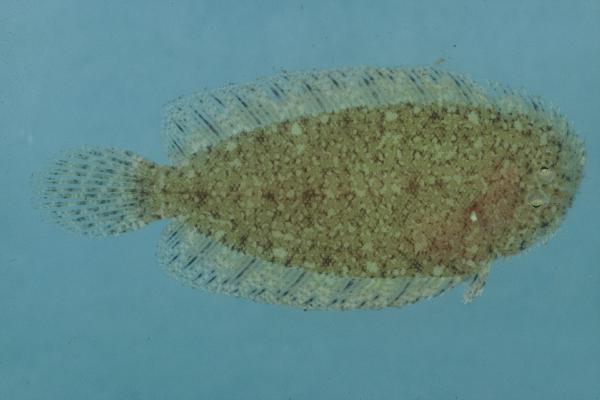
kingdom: Animalia
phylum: Chordata
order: Pleuronectiformes
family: Soleidae
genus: Aseraggodes
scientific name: Aseraggodes xenicus
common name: Dwarf sole
